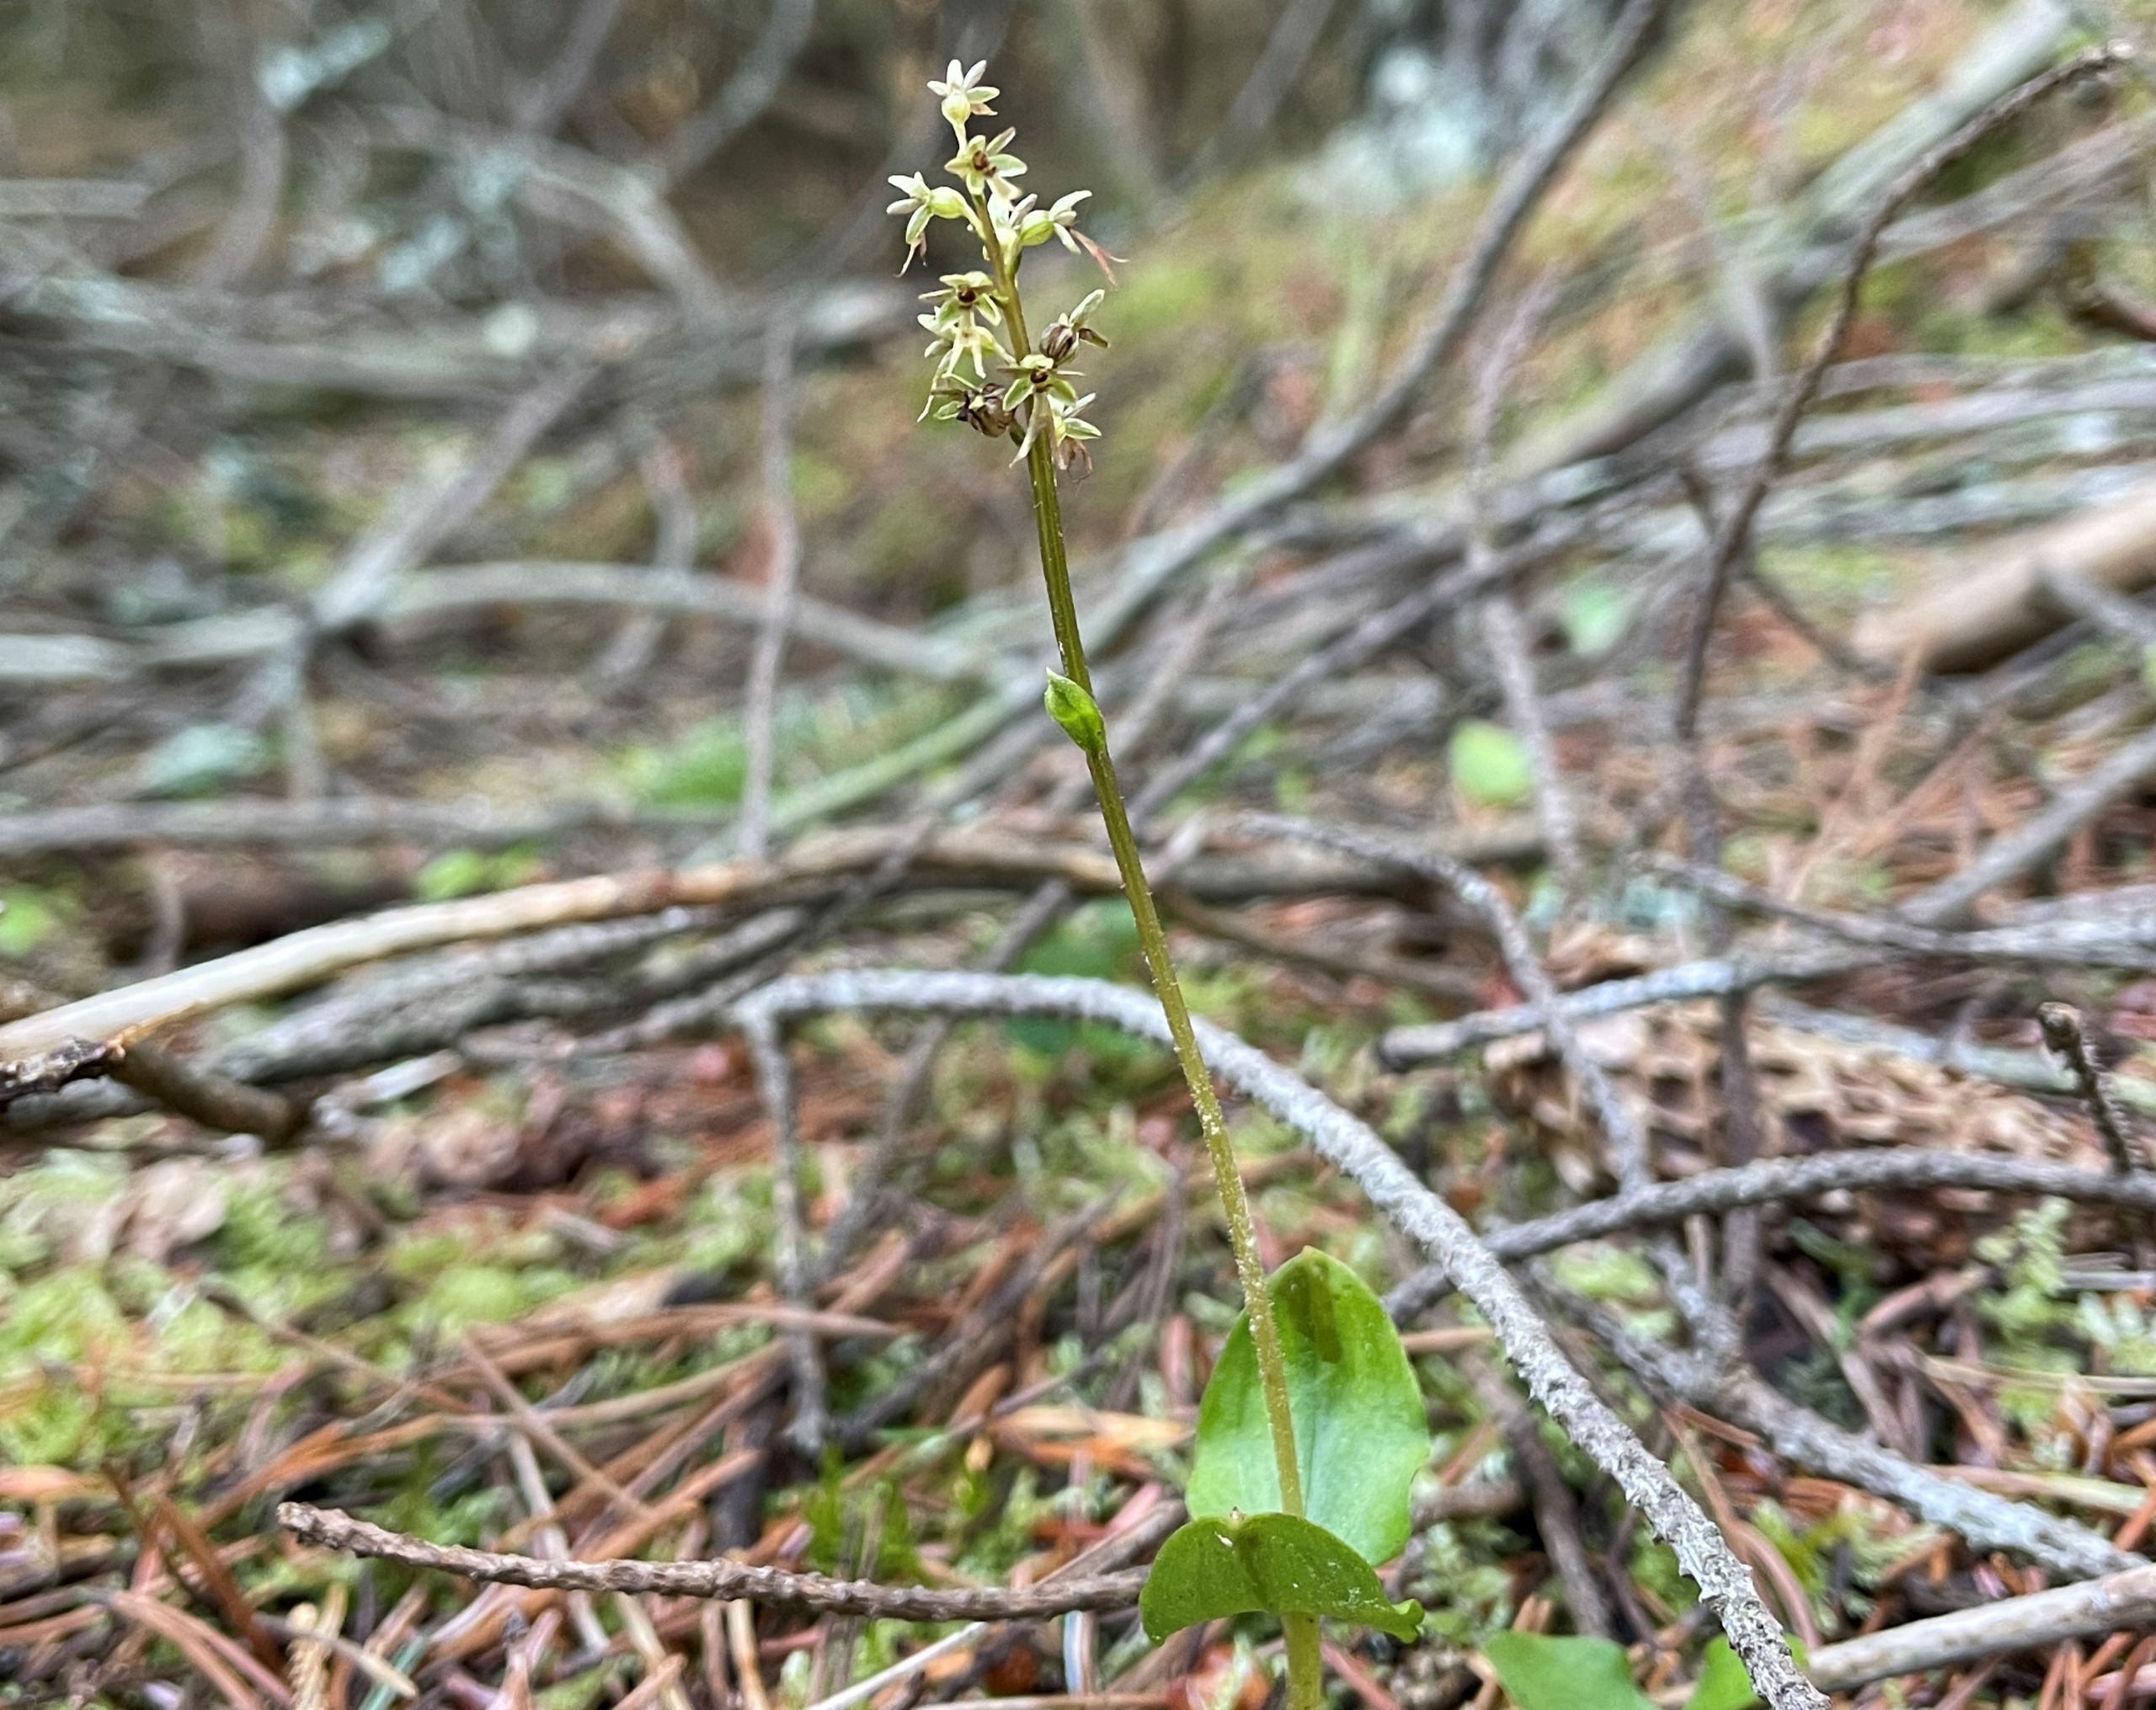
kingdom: Plantae
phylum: Tracheophyta
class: Liliopsida
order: Asparagales
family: Orchidaceae
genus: Neottia
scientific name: Neottia cordata
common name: Hjertebladet fliglæbe
